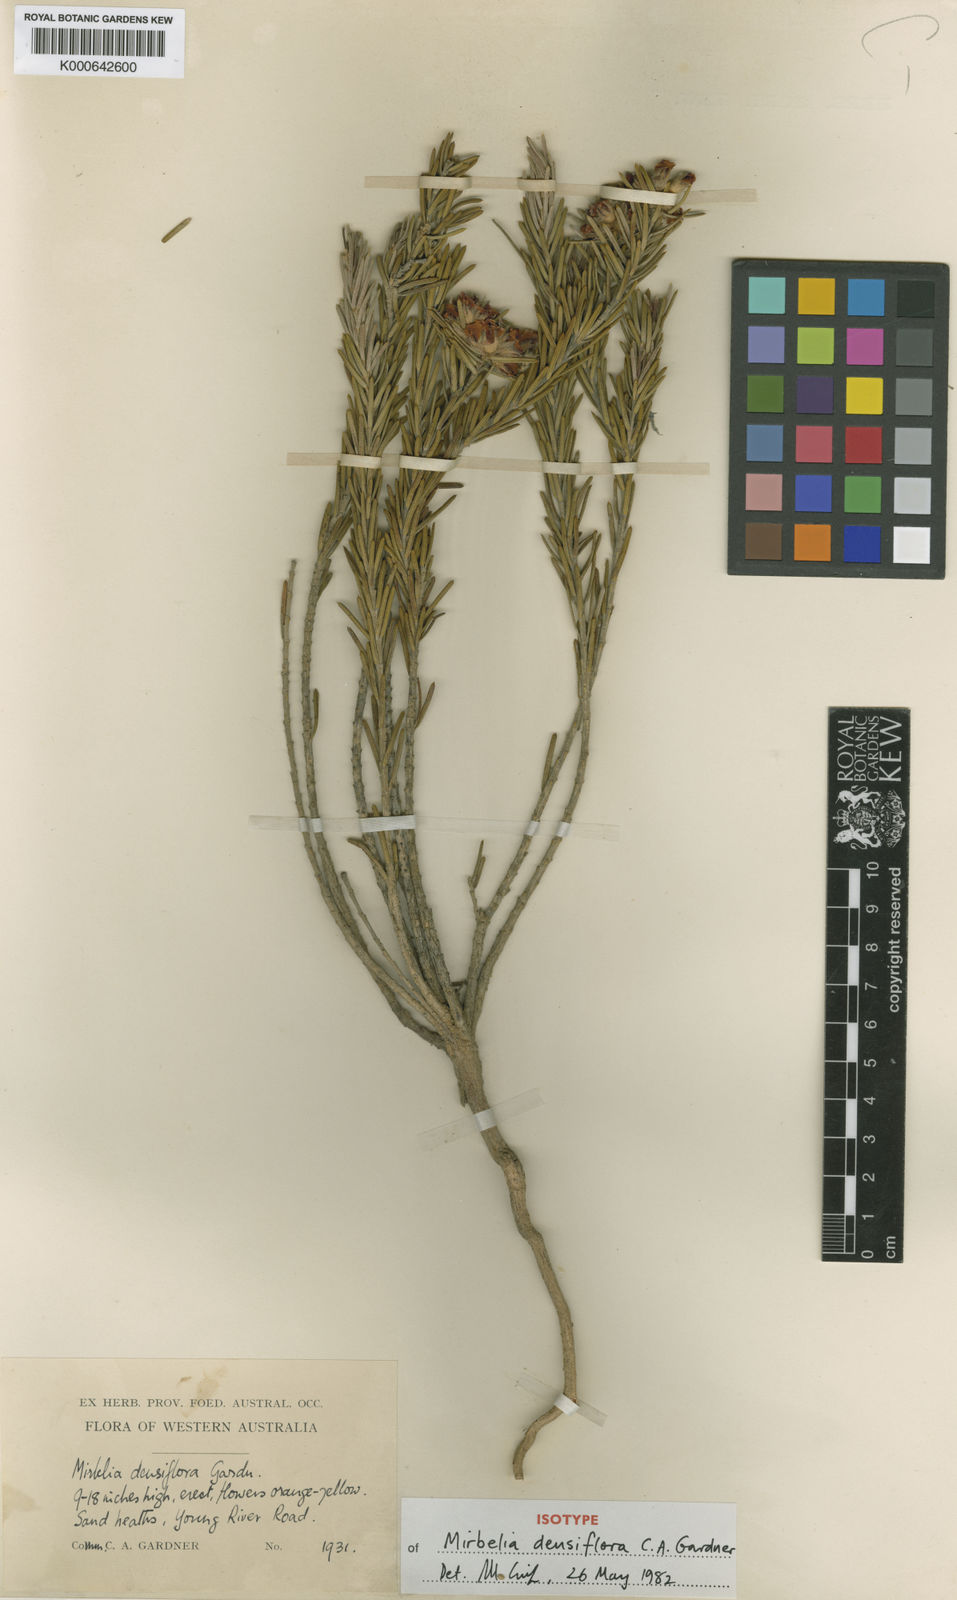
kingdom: Plantae
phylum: Tracheophyta
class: Magnoliopsida
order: Fabales
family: Fabaceae
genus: Mirbelia
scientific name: Mirbelia densiflora
